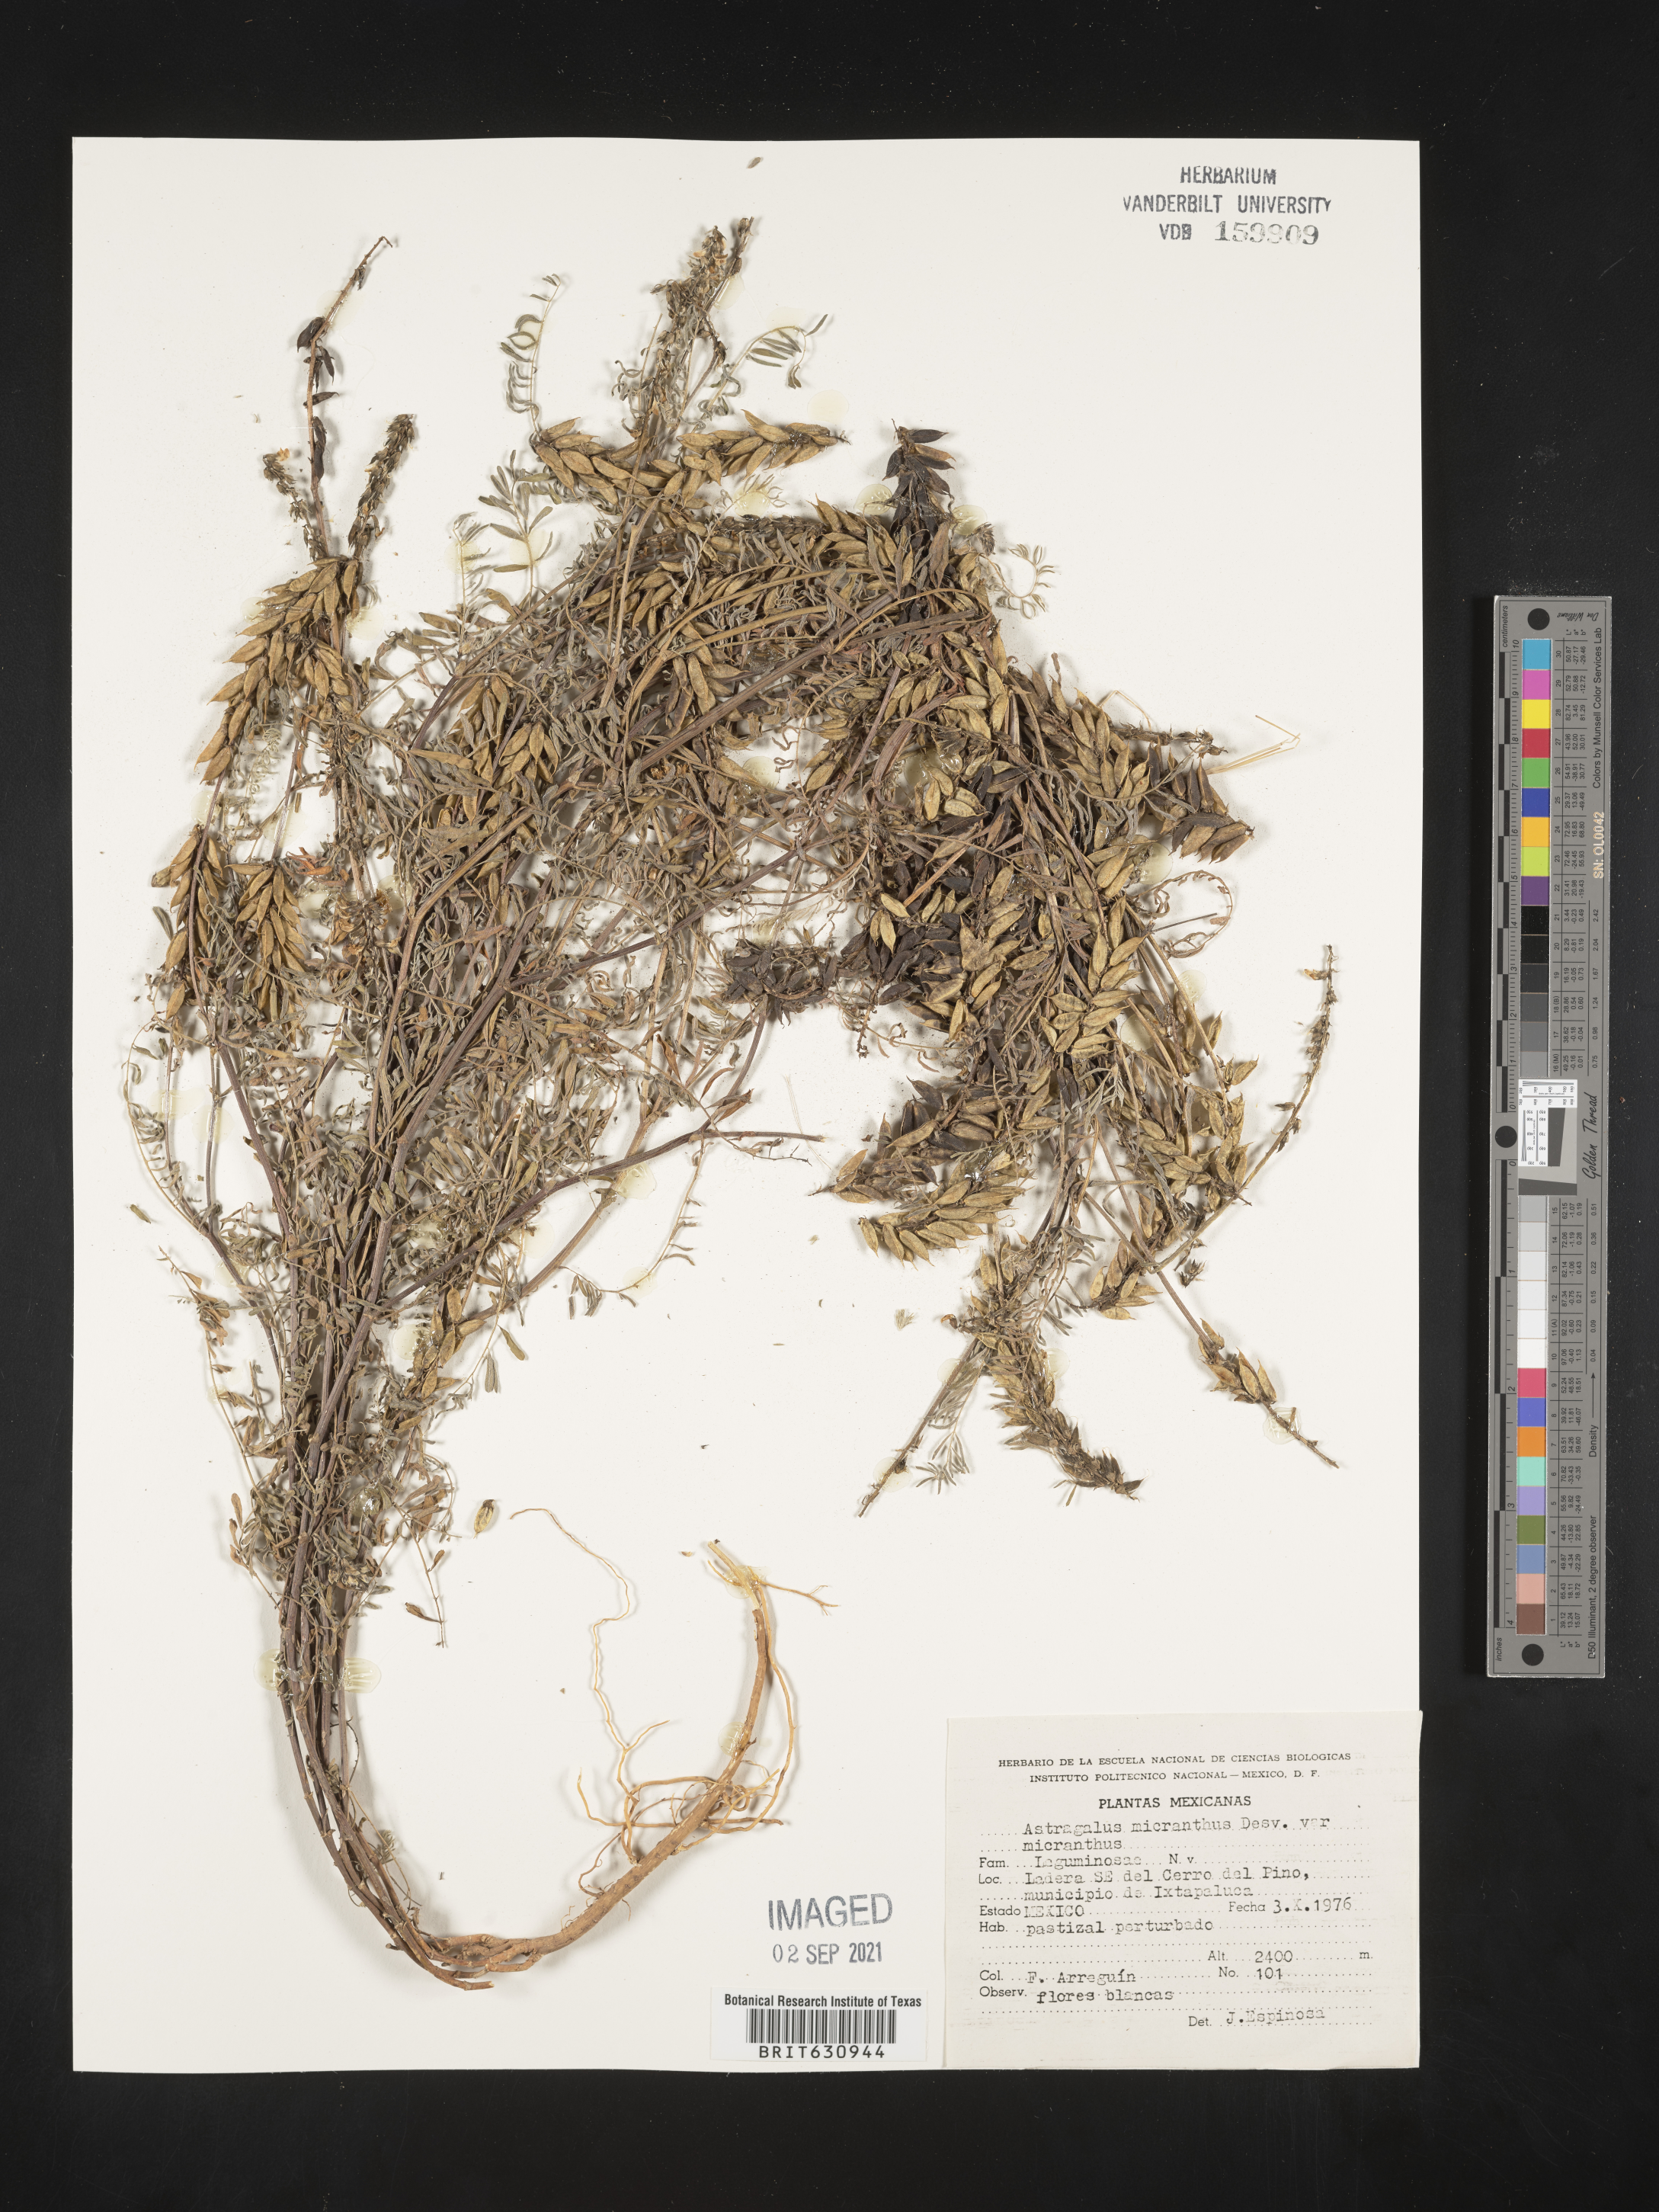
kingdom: Plantae
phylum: Tracheophyta
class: Magnoliopsida
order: Fabales
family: Fabaceae
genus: Astragalus
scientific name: Astragalus
